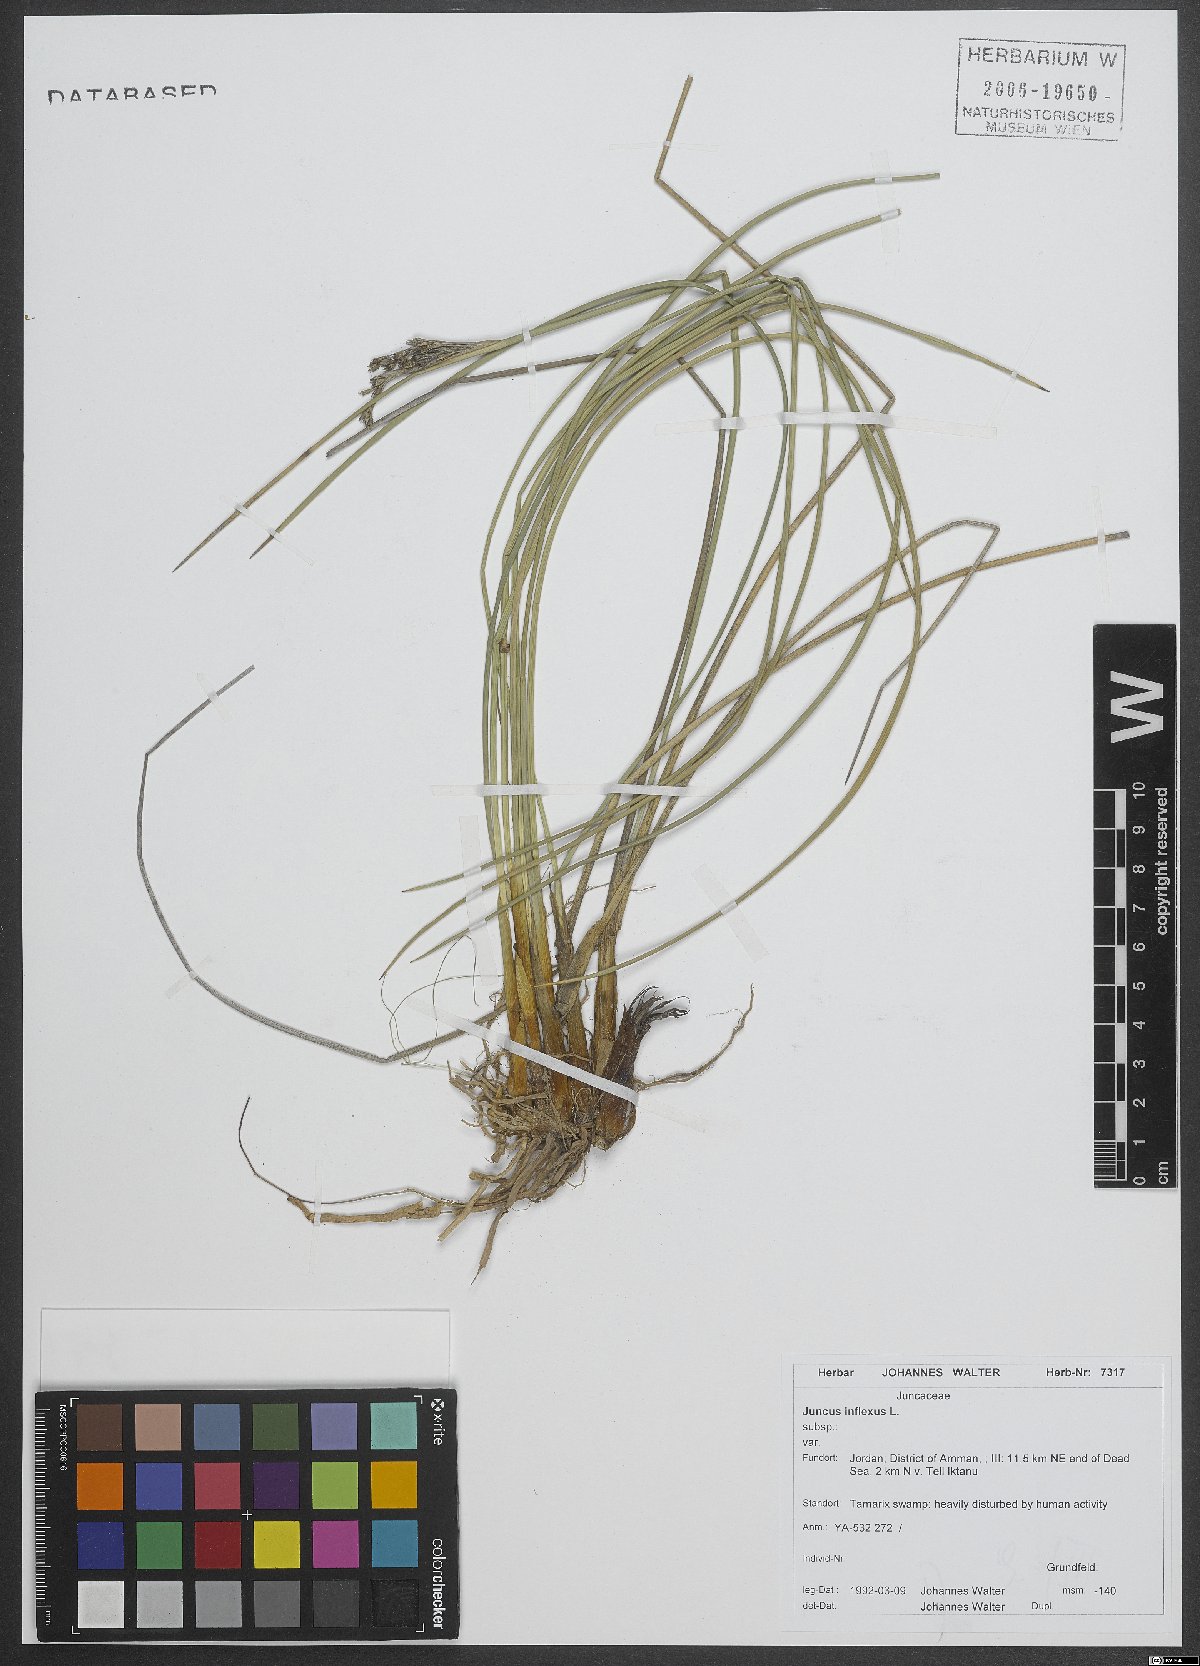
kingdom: Plantae
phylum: Tracheophyta
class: Liliopsida
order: Poales
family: Juncaceae
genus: Juncus
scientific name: Juncus inflexus
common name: Hard rush
